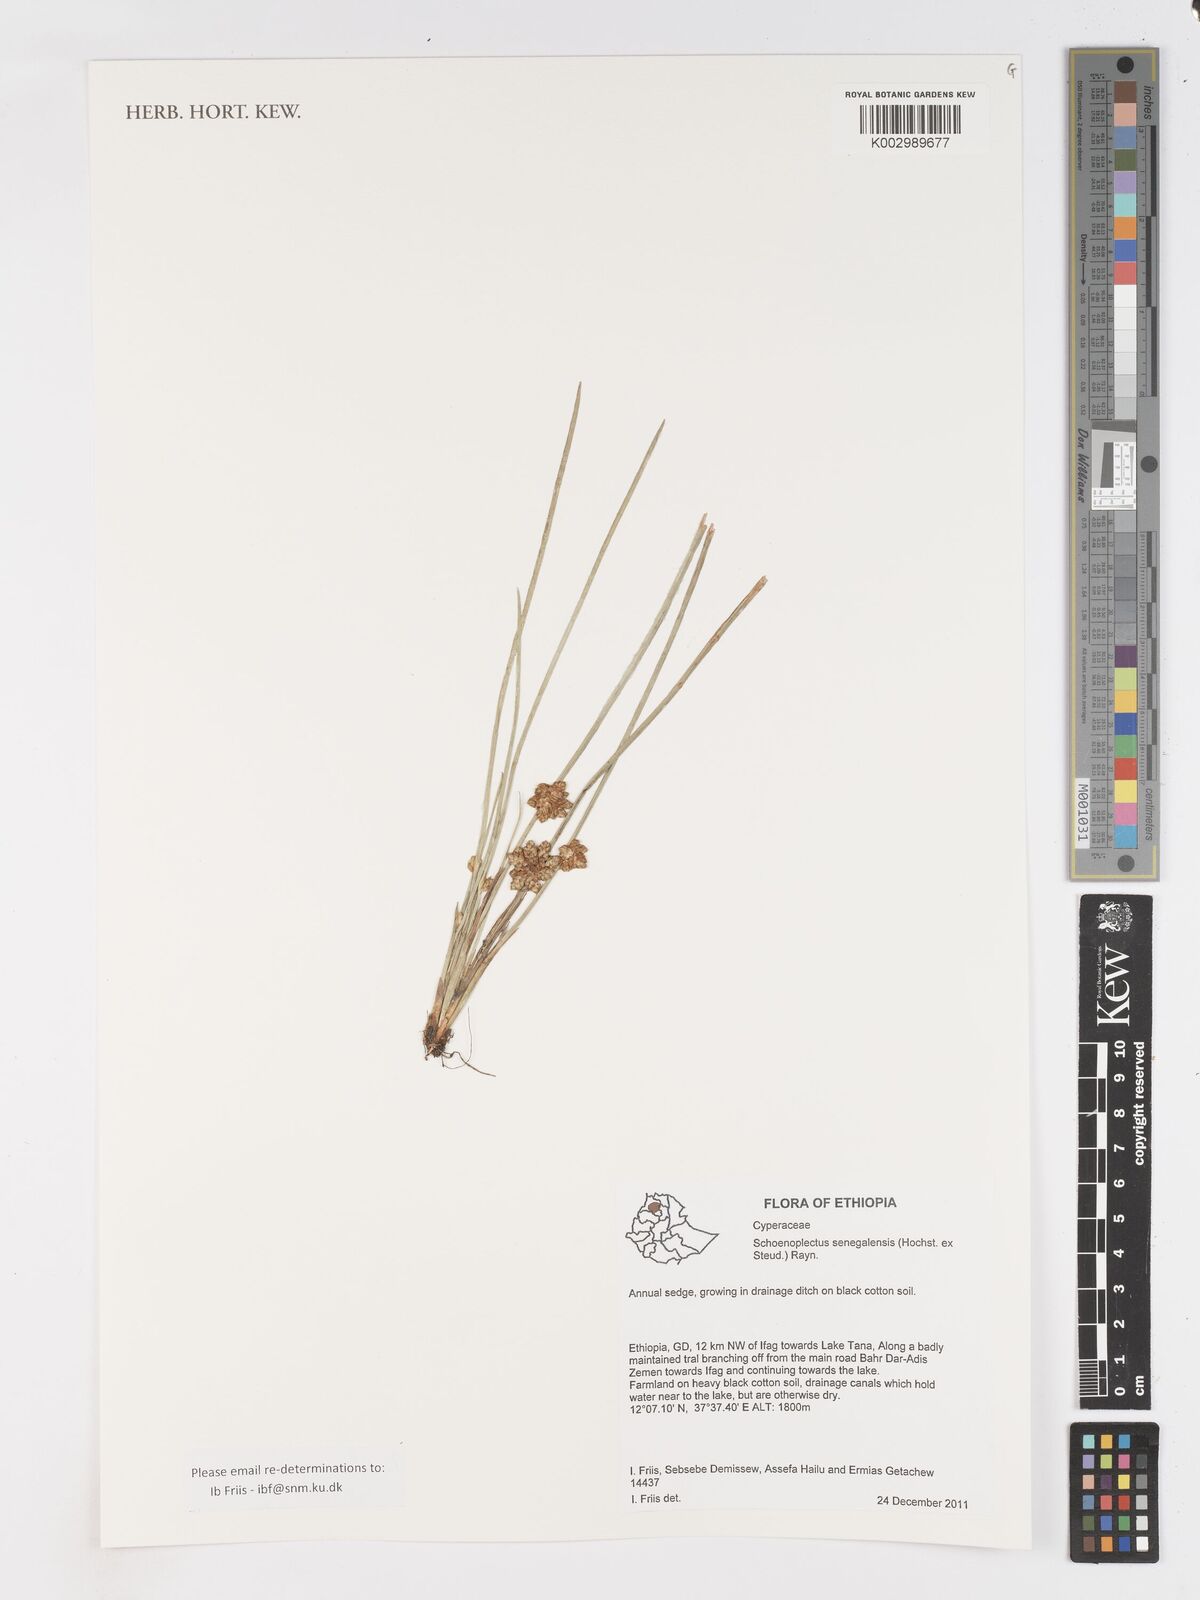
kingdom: Plantae
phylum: Tracheophyta
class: Liliopsida
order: Poales
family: Cyperaceae
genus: Schoenoplectiella
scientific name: Schoenoplectiella senegalensis
